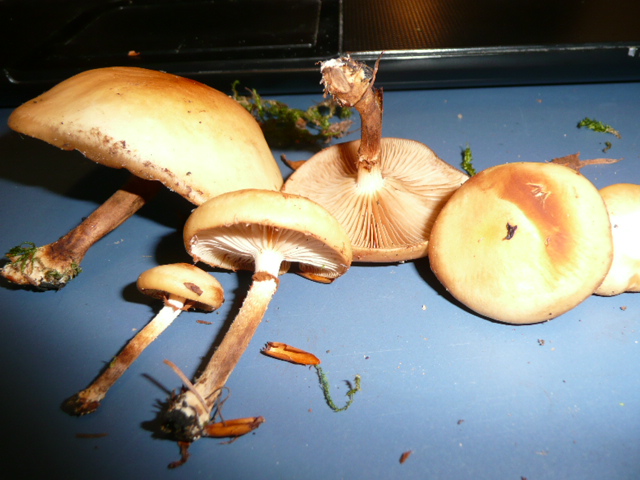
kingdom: Fungi
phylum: Basidiomycota
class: Agaricomycetes
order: Agaricales
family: Strophariaceae
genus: Kuehneromyces
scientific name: Kuehneromyces mutabilis
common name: foranderlig skælhat
